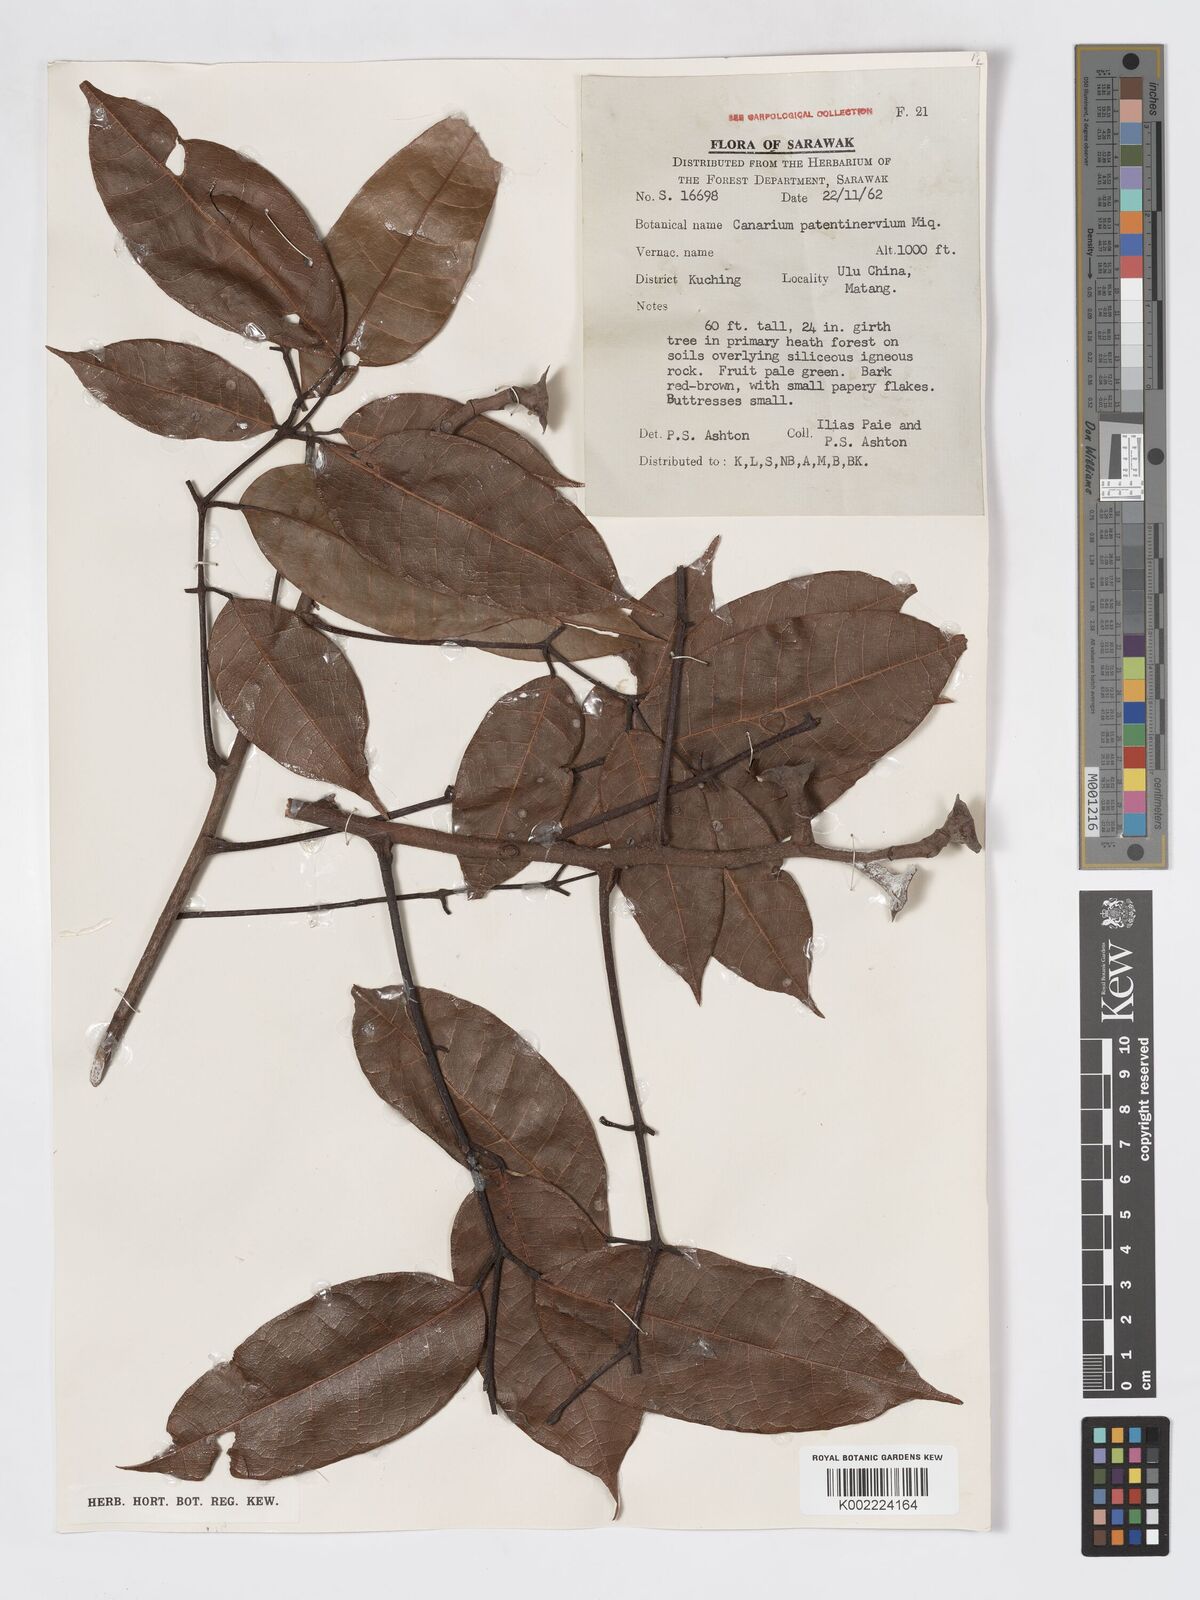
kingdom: Plantae
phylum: Tracheophyta
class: Magnoliopsida
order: Sapindales
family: Burseraceae
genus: Canarium
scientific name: Canarium patentinervium
